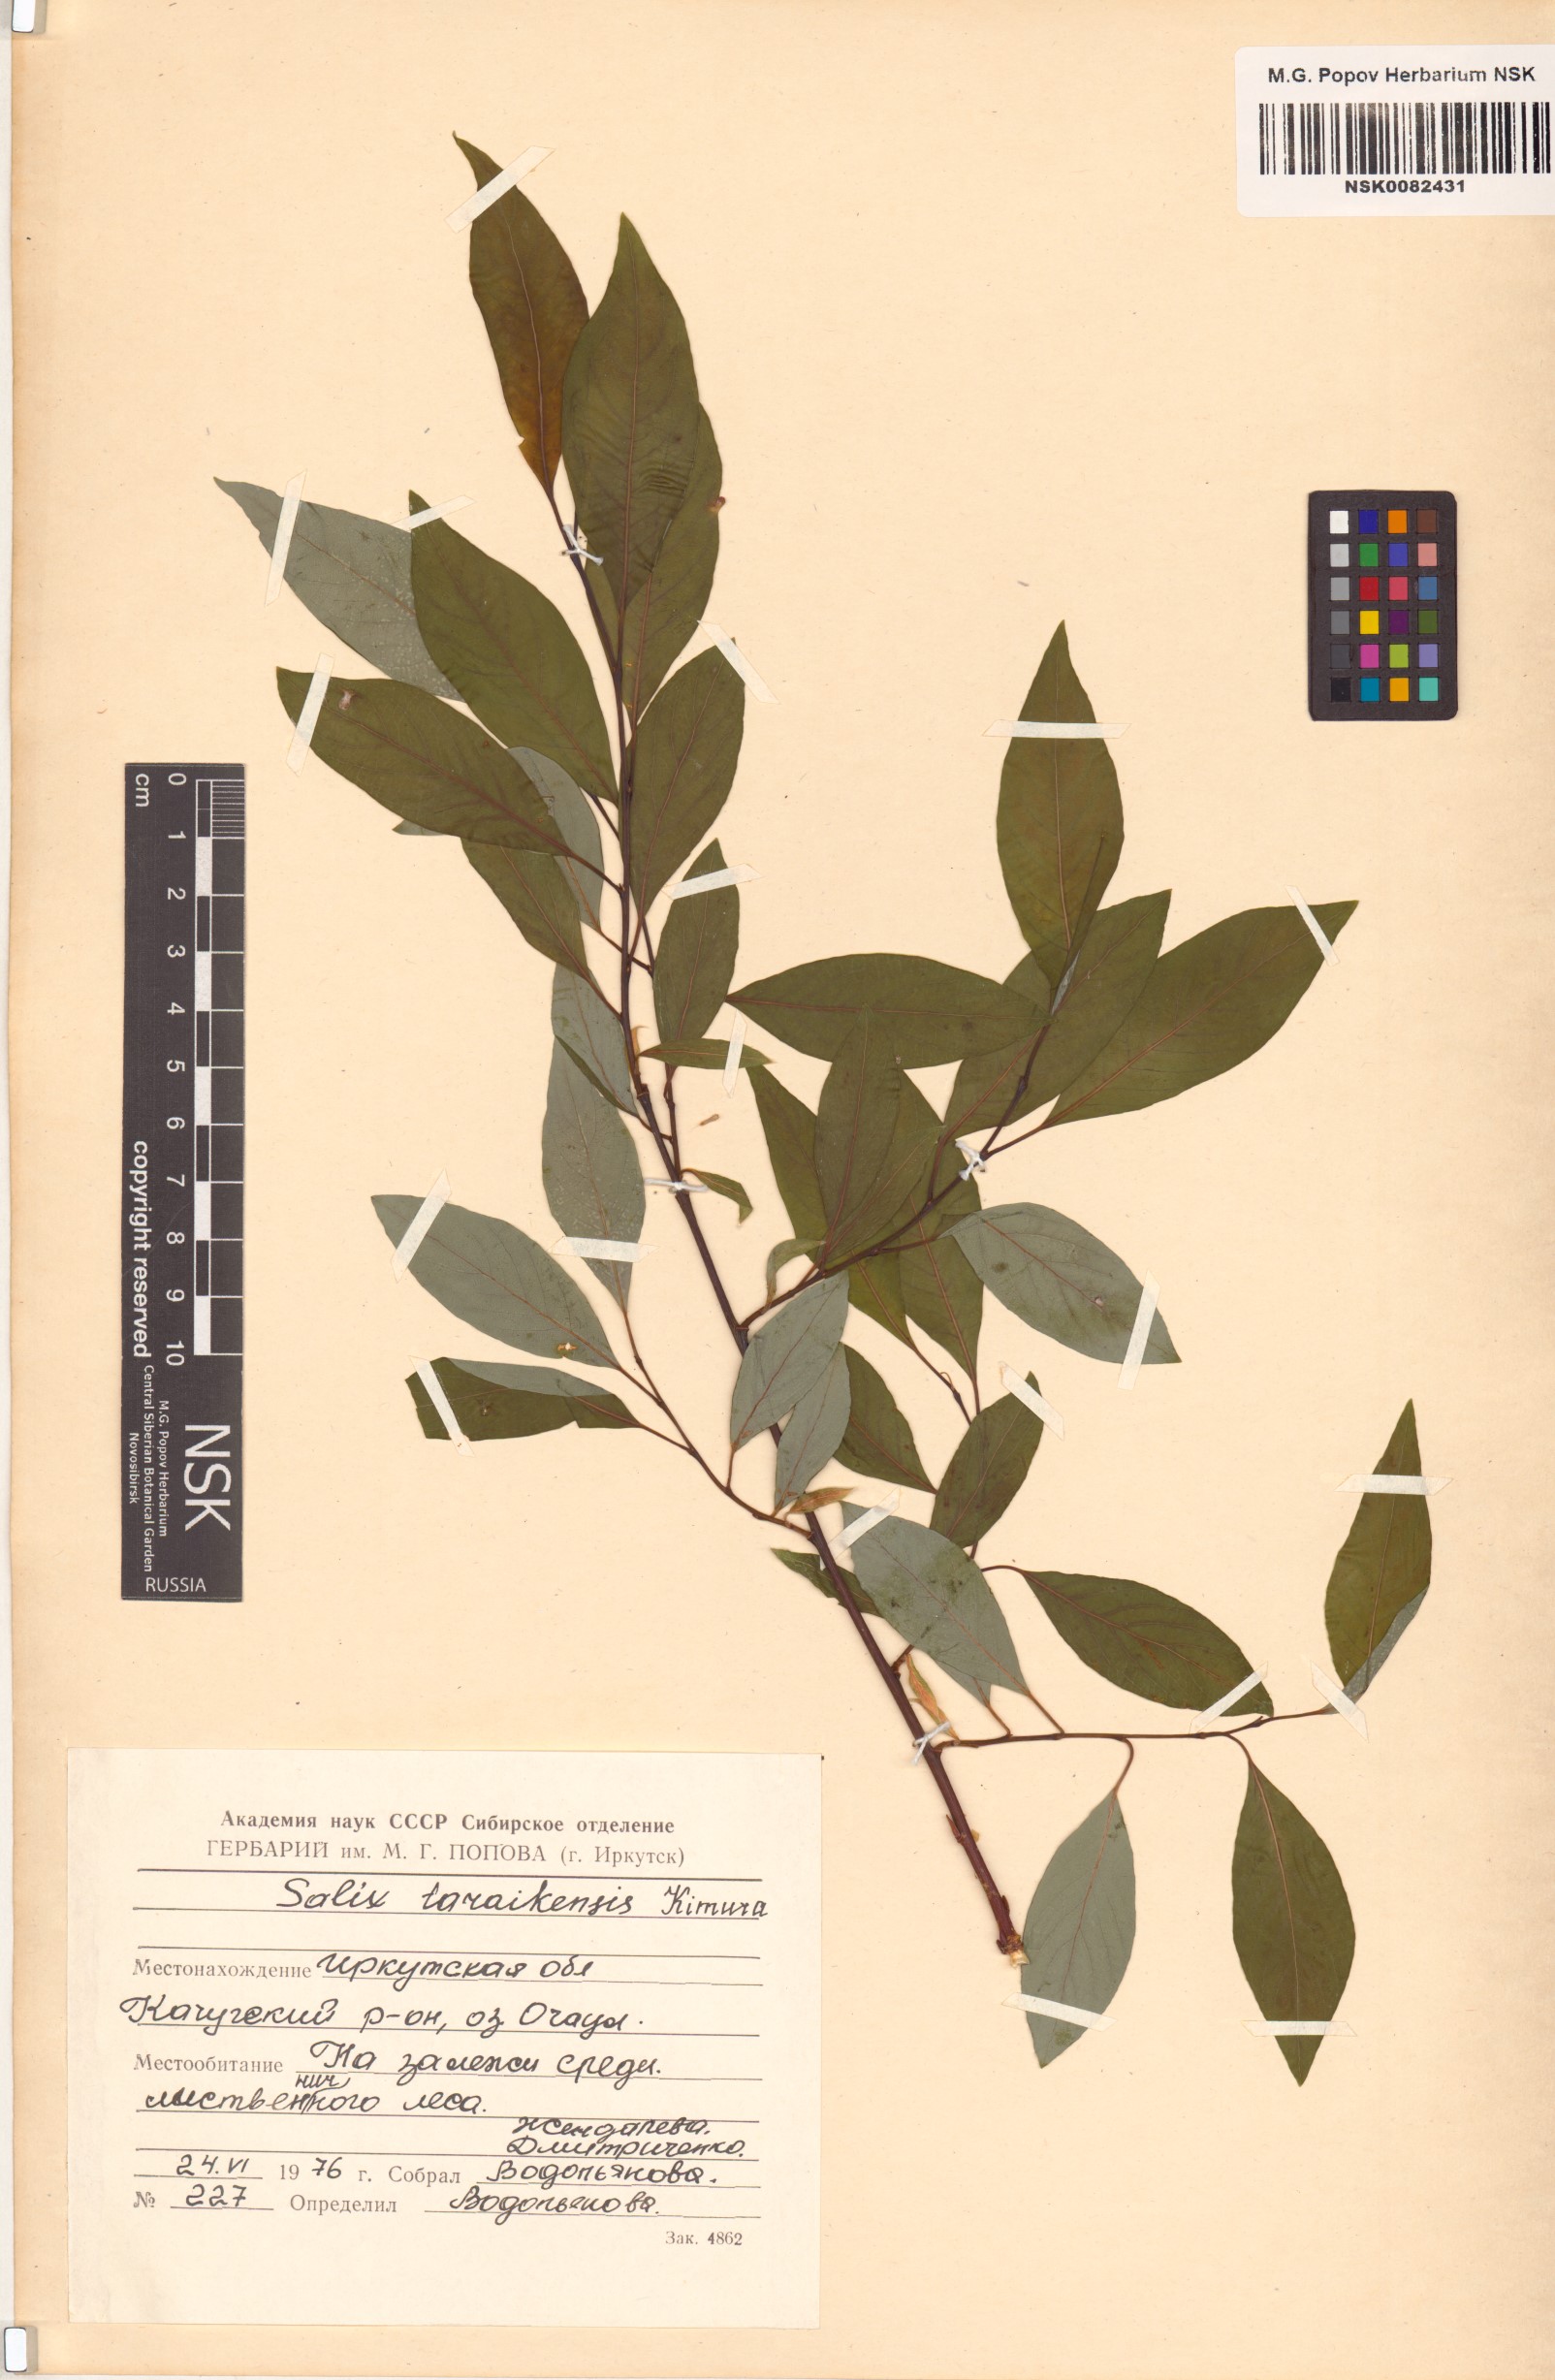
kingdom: Plantae
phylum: Tracheophyta
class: Magnoliopsida
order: Malpighiales
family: Salicaceae
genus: Salix
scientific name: Salix taraikensis
